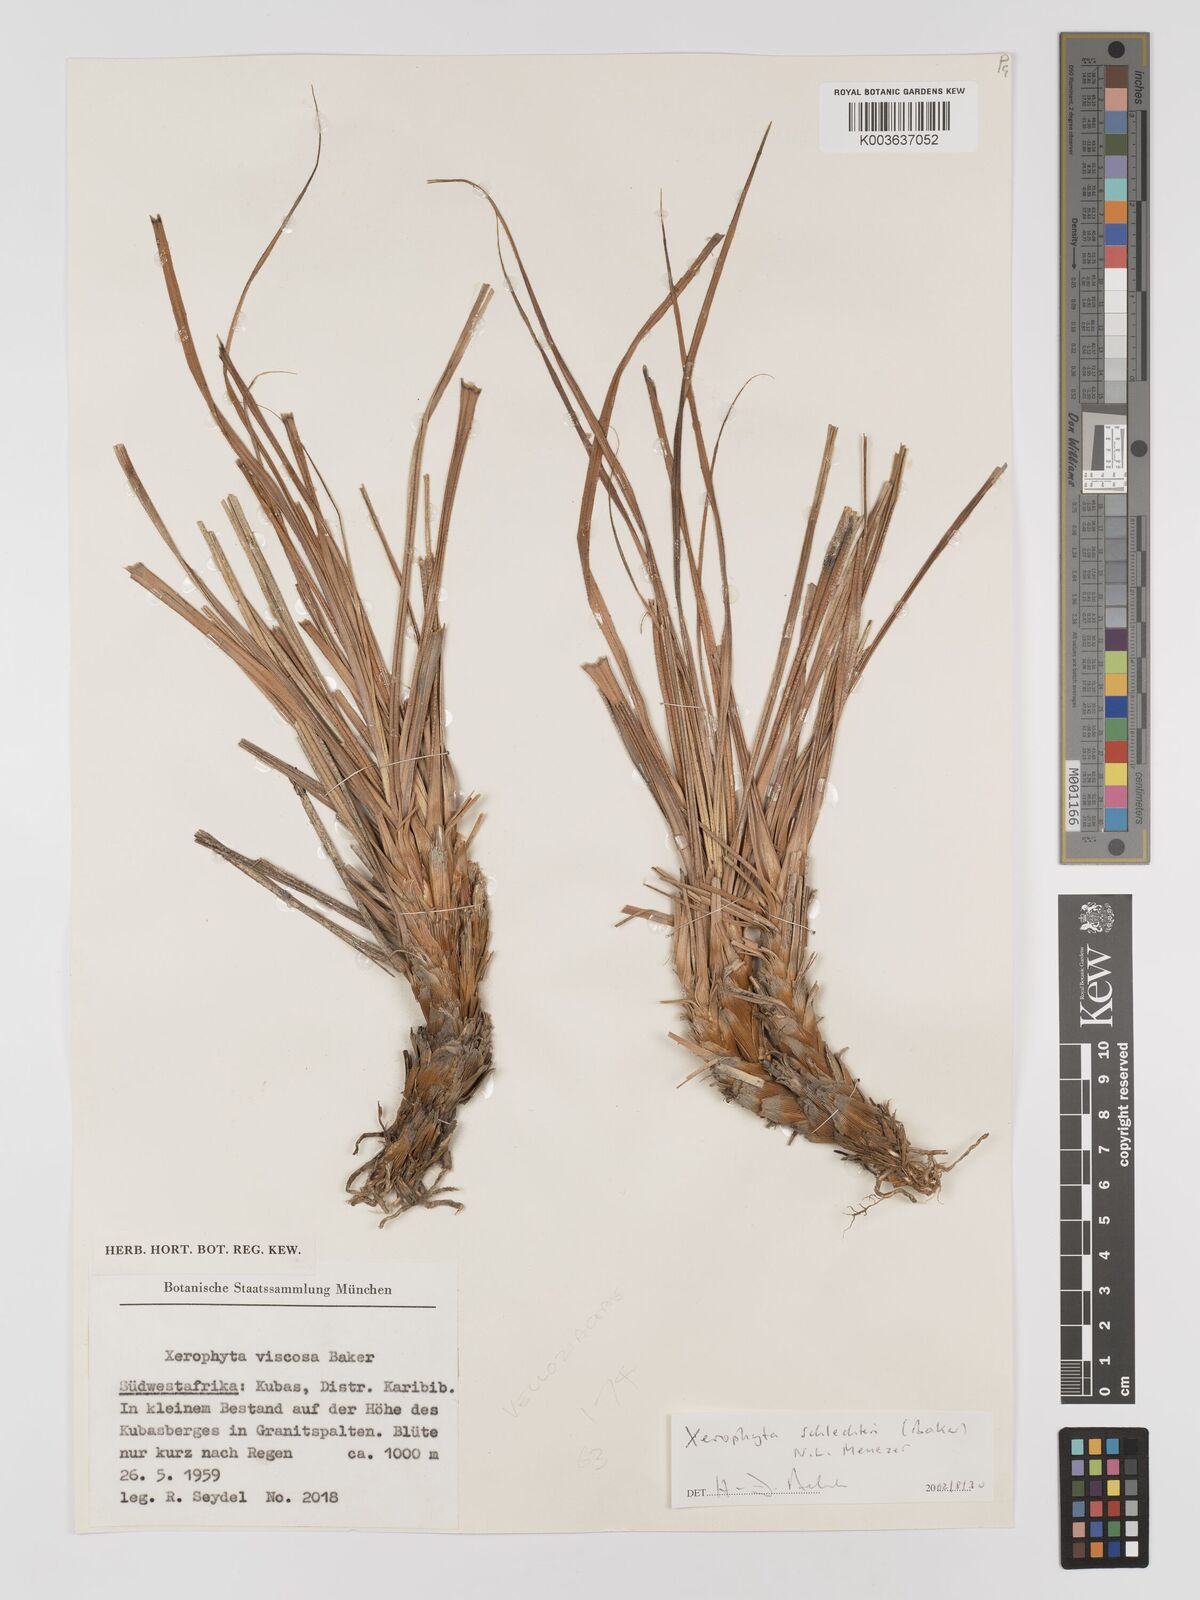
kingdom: Plantae
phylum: Tracheophyta
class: Liliopsida
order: Pandanales
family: Velloziaceae
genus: Xerophyta
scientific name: Xerophyta schlechteri
